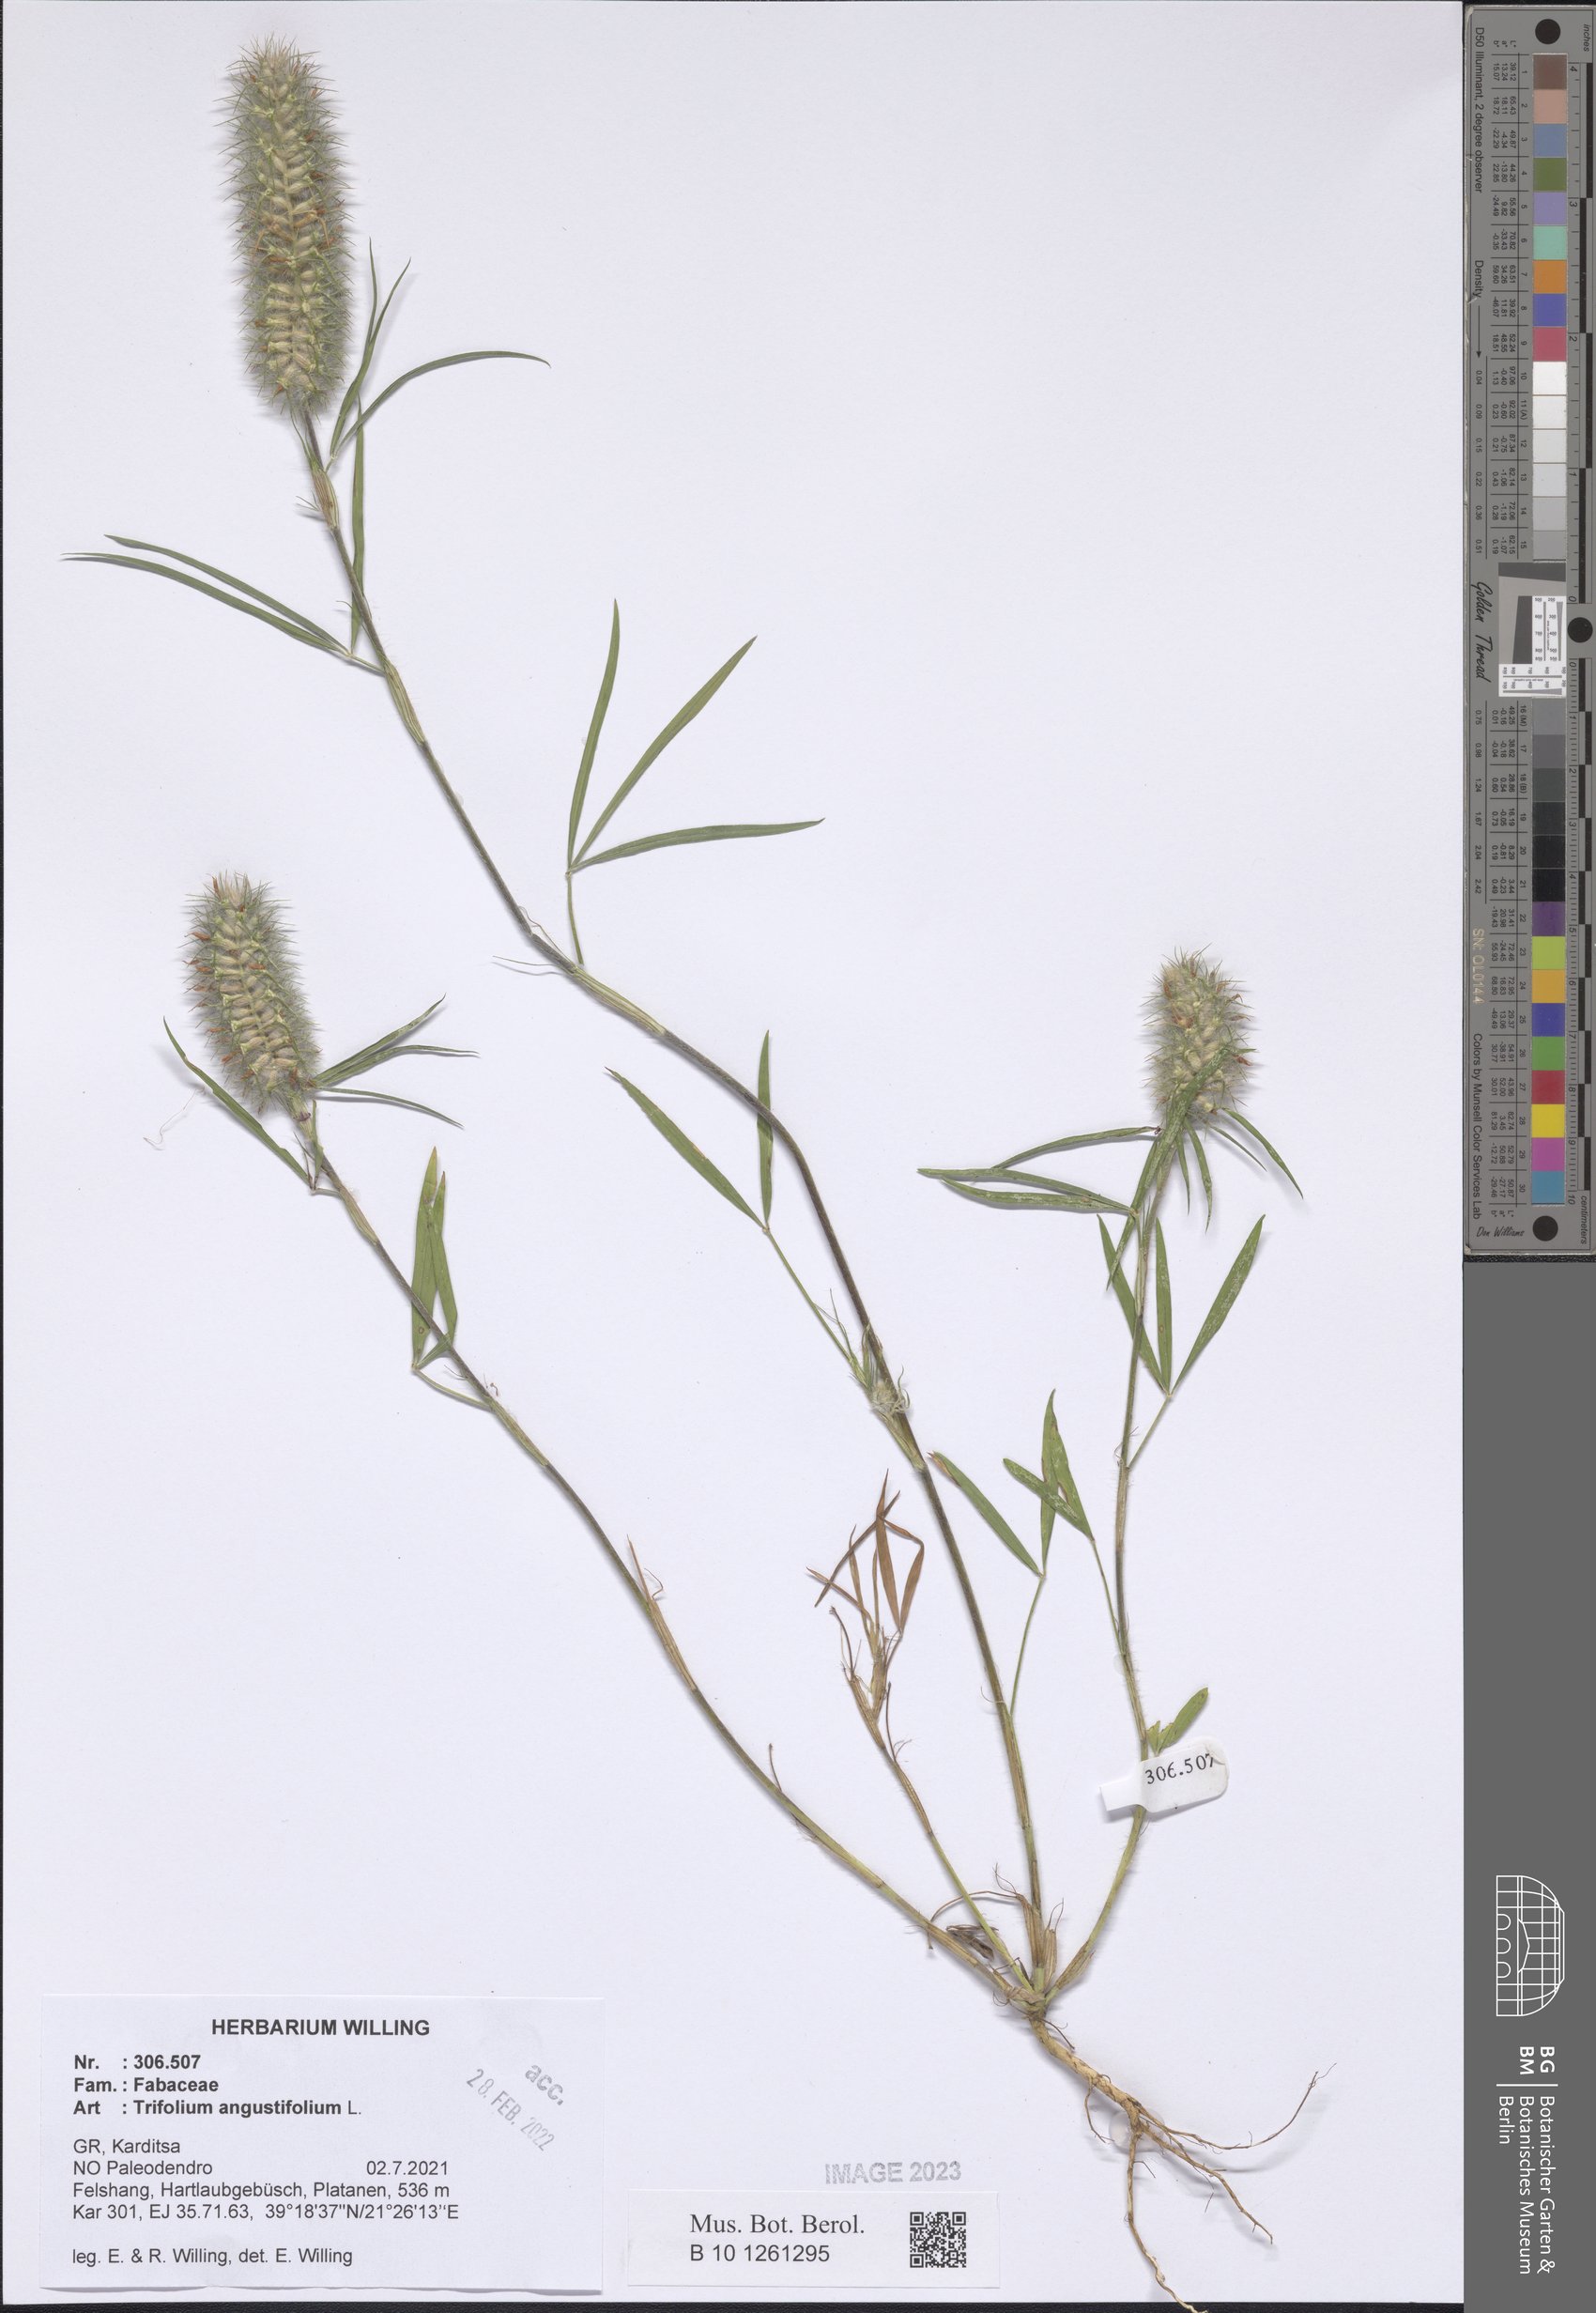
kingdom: Plantae
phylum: Tracheophyta
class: Magnoliopsida
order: Fabales
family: Fabaceae
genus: Trifolium
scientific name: Trifolium angustifolium
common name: Narrow clover
